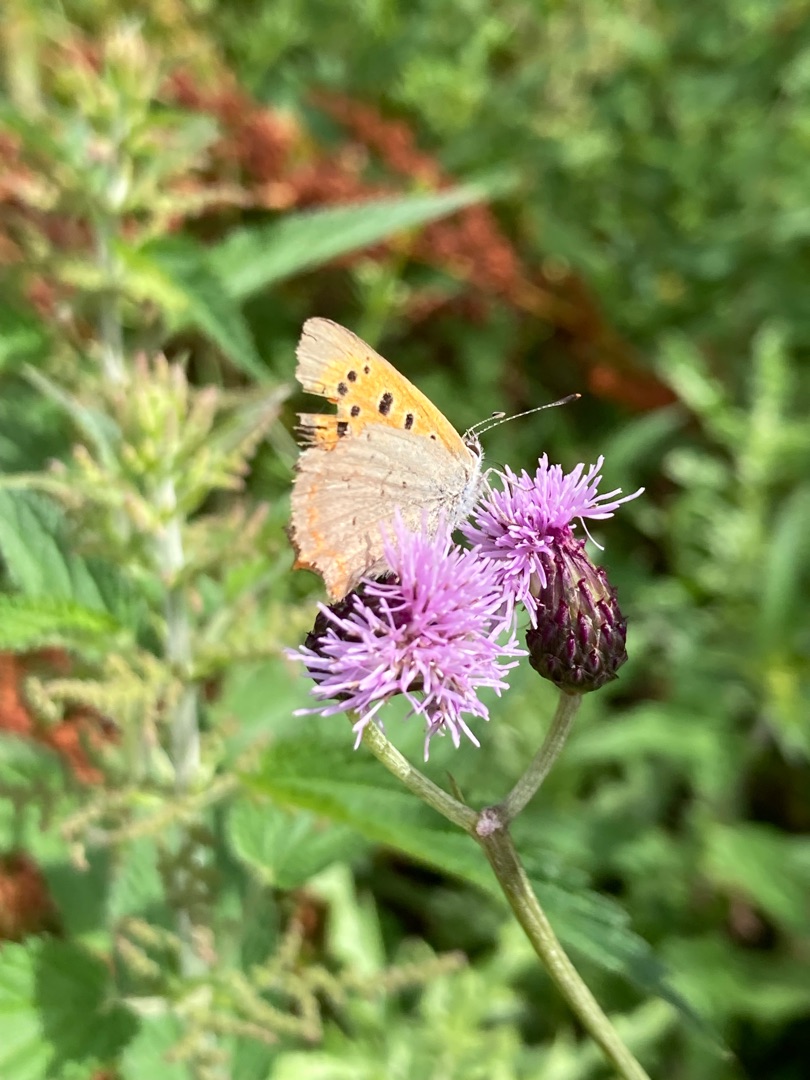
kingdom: Animalia
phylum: Arthropoda
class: Insecta
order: Lepidoptera
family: Lycaenidae
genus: Lycaena
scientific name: Lycaena phlaeas
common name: Lille ildfugl
